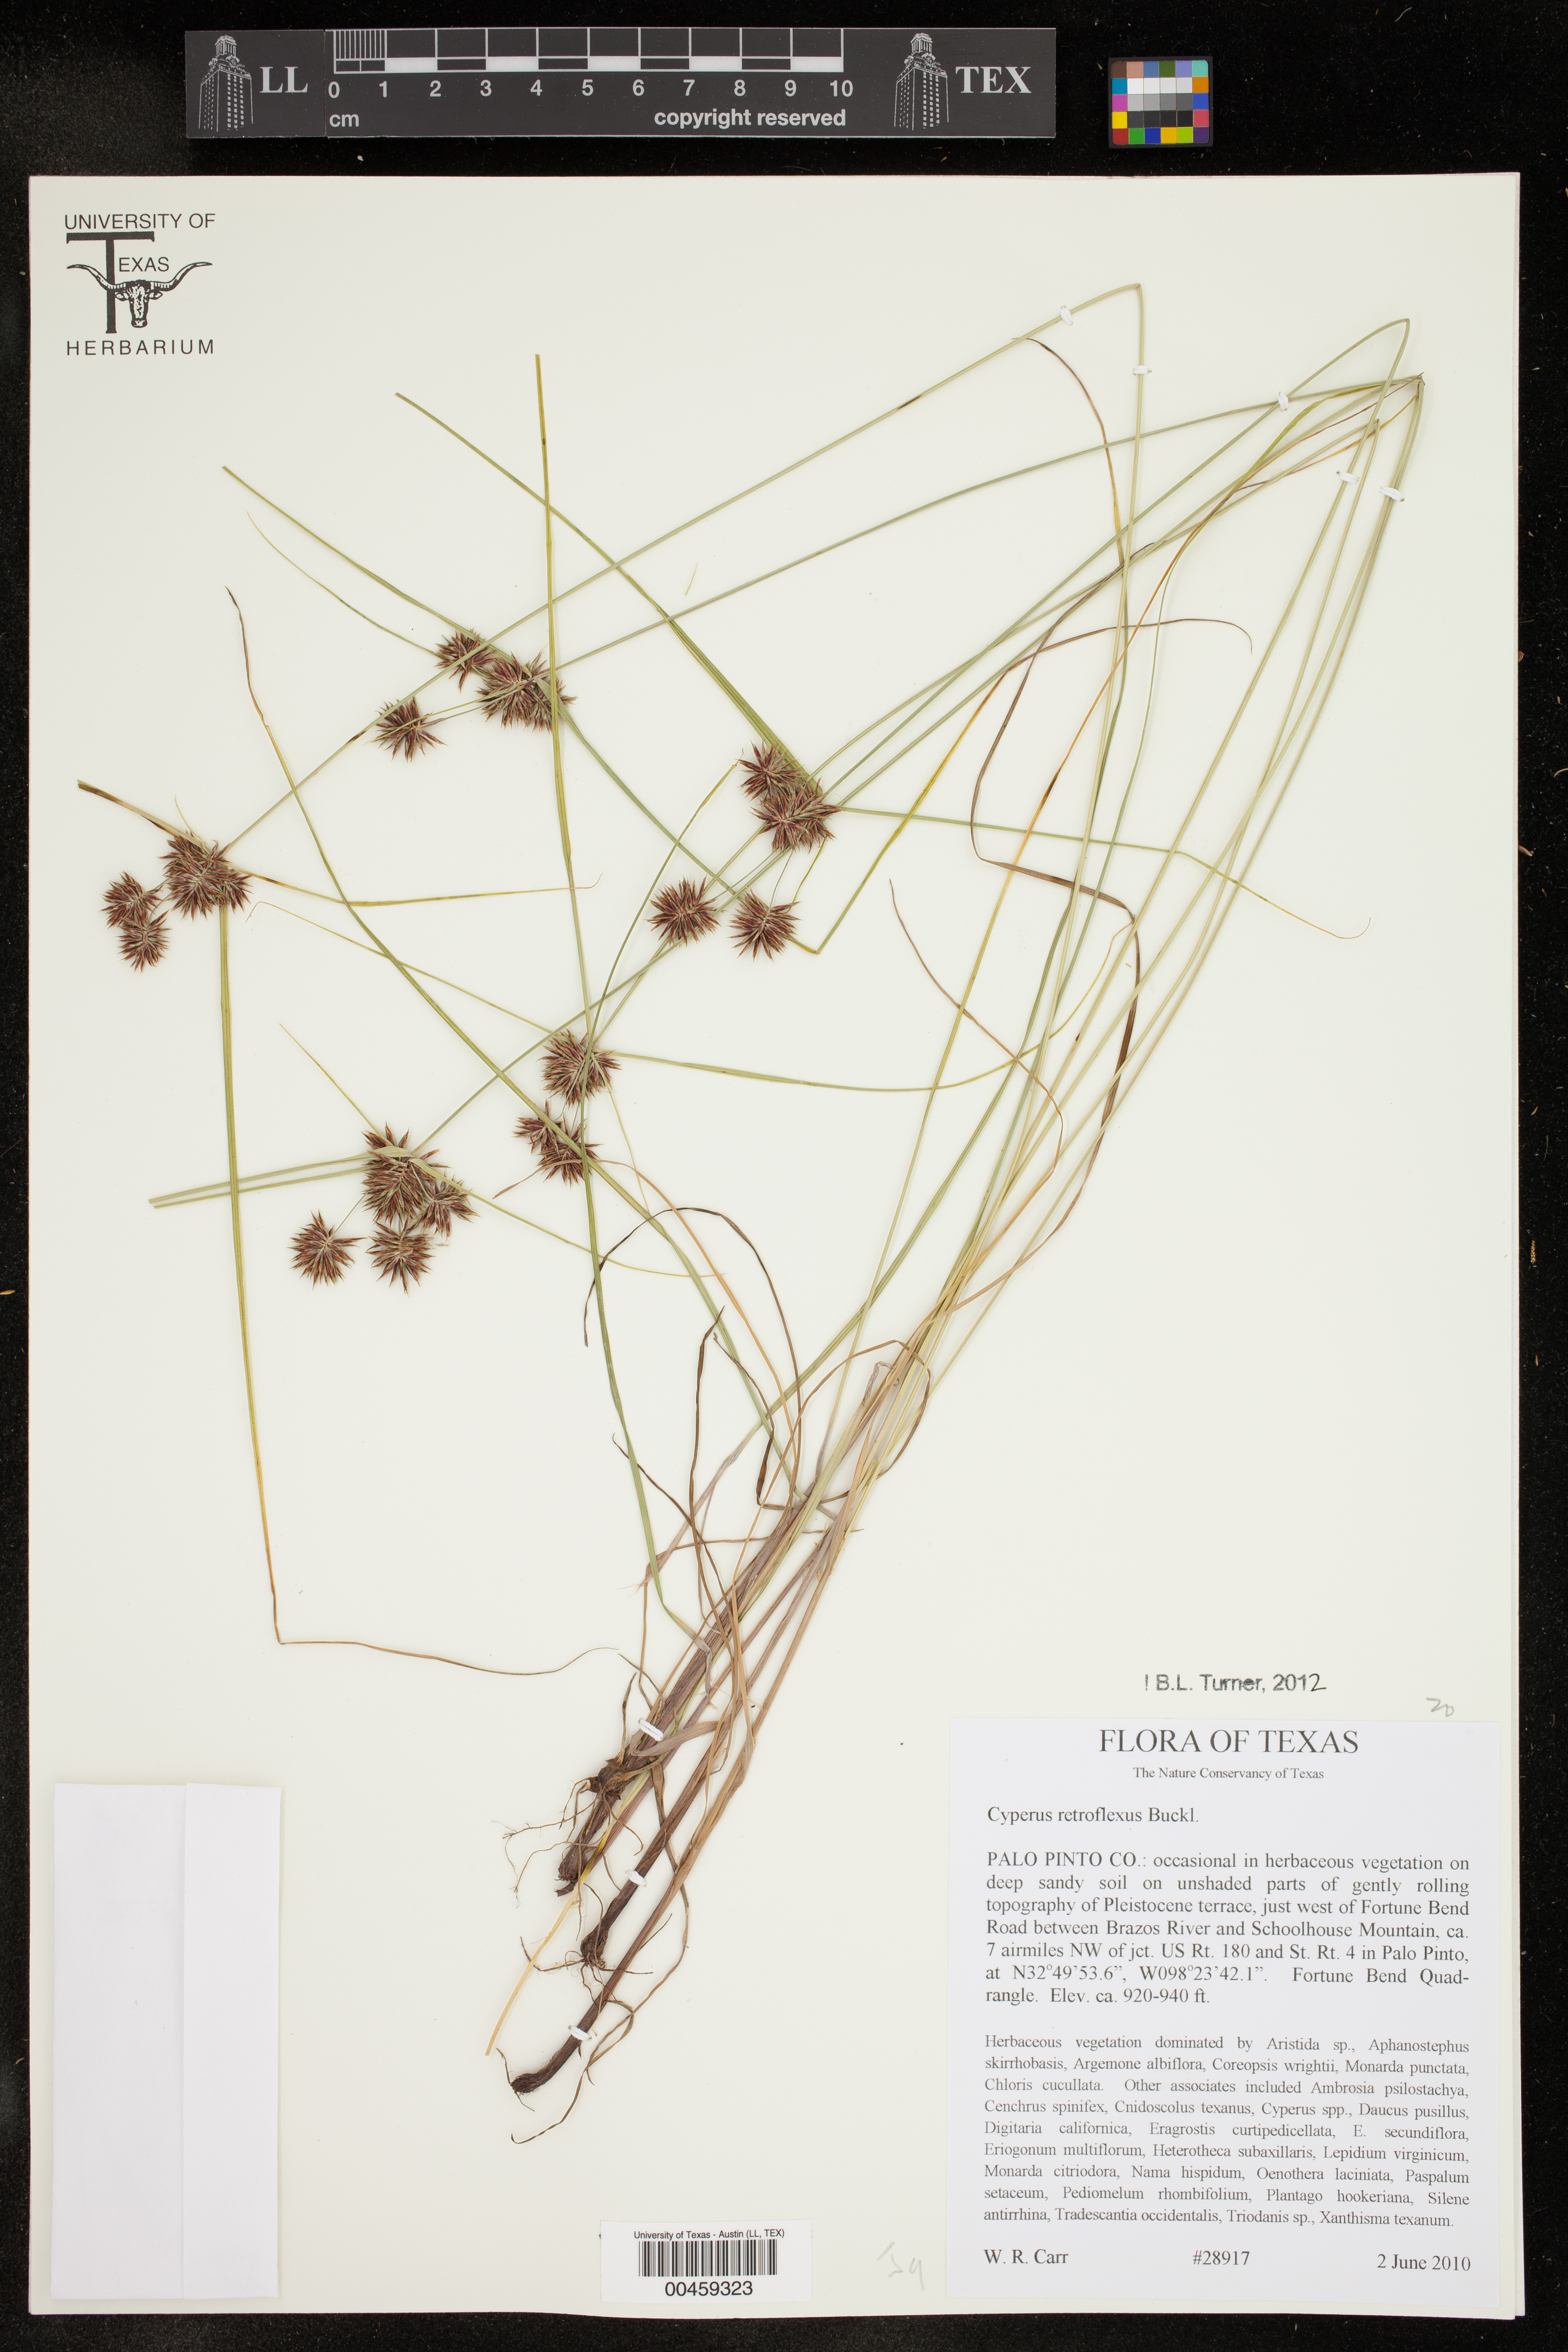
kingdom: Plantae
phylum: Tracheophyta
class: Liliopsida
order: Poales
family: Cyperaceae
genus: Cyperus
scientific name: Cyperus retroflexus
